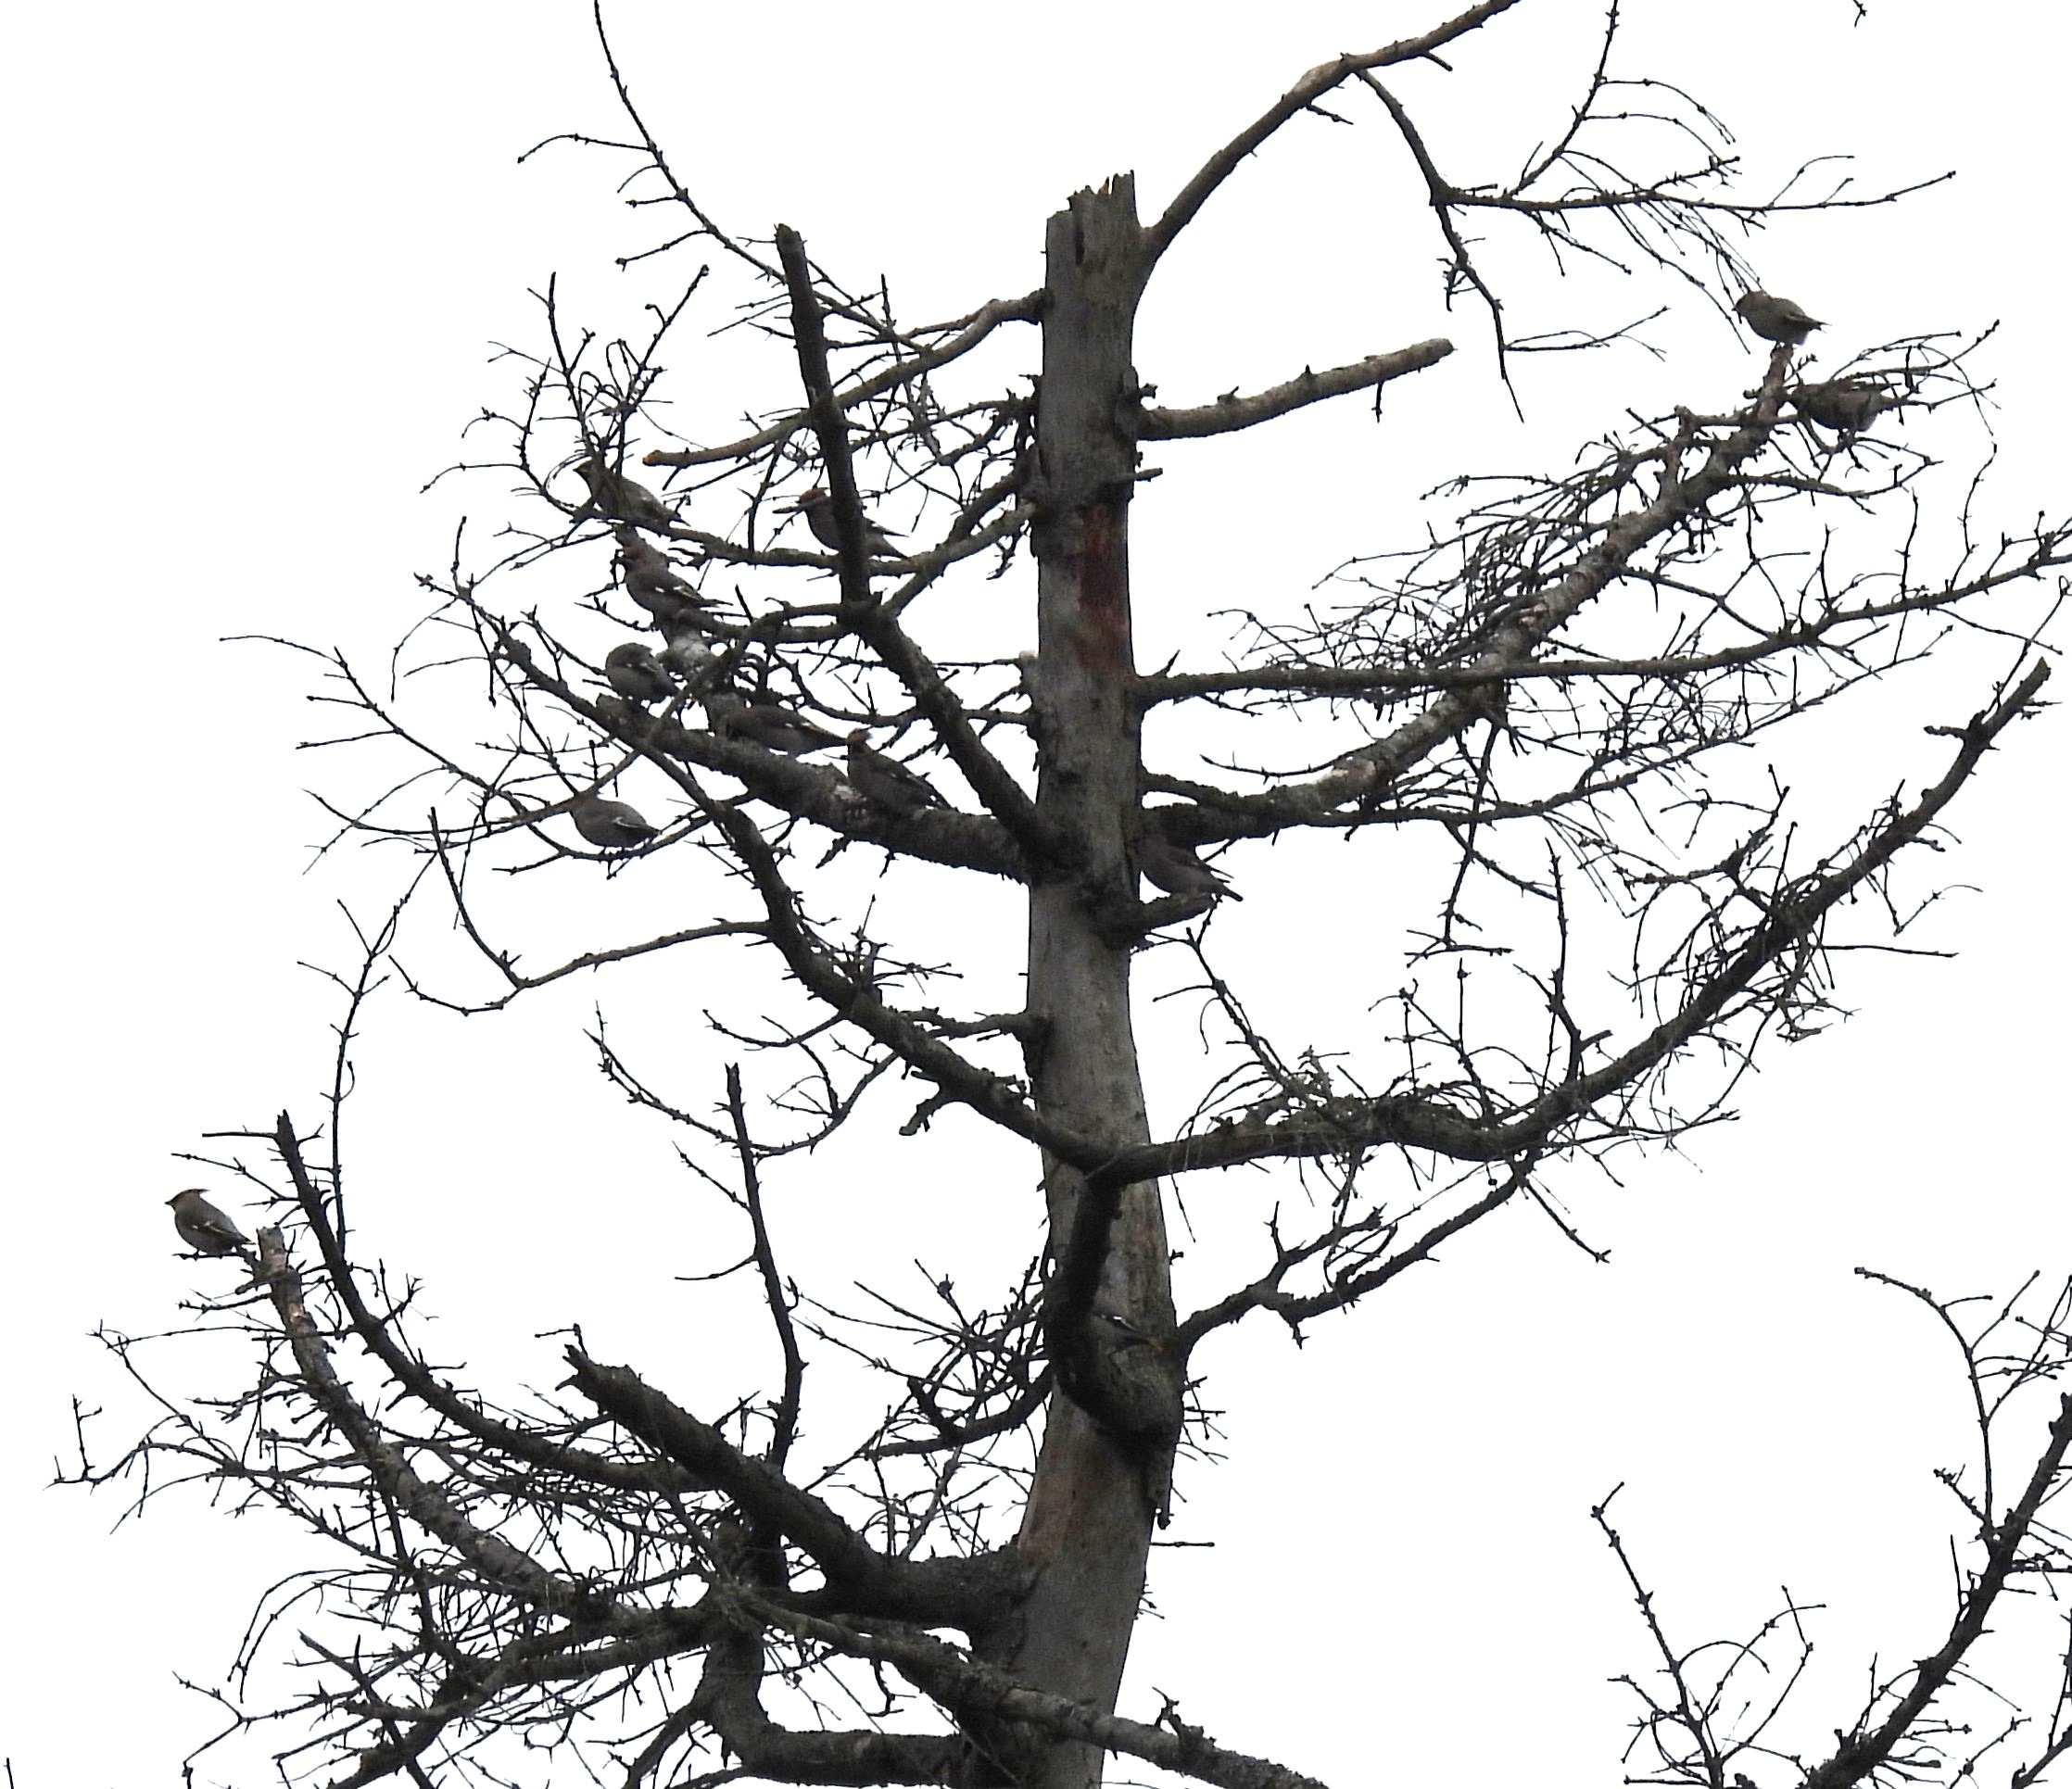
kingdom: Animalia
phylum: Chordata
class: Aves
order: Passeriformes
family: Bombycillidae
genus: Bombycilla
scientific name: Bombycilla garrulus
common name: Silkehale
